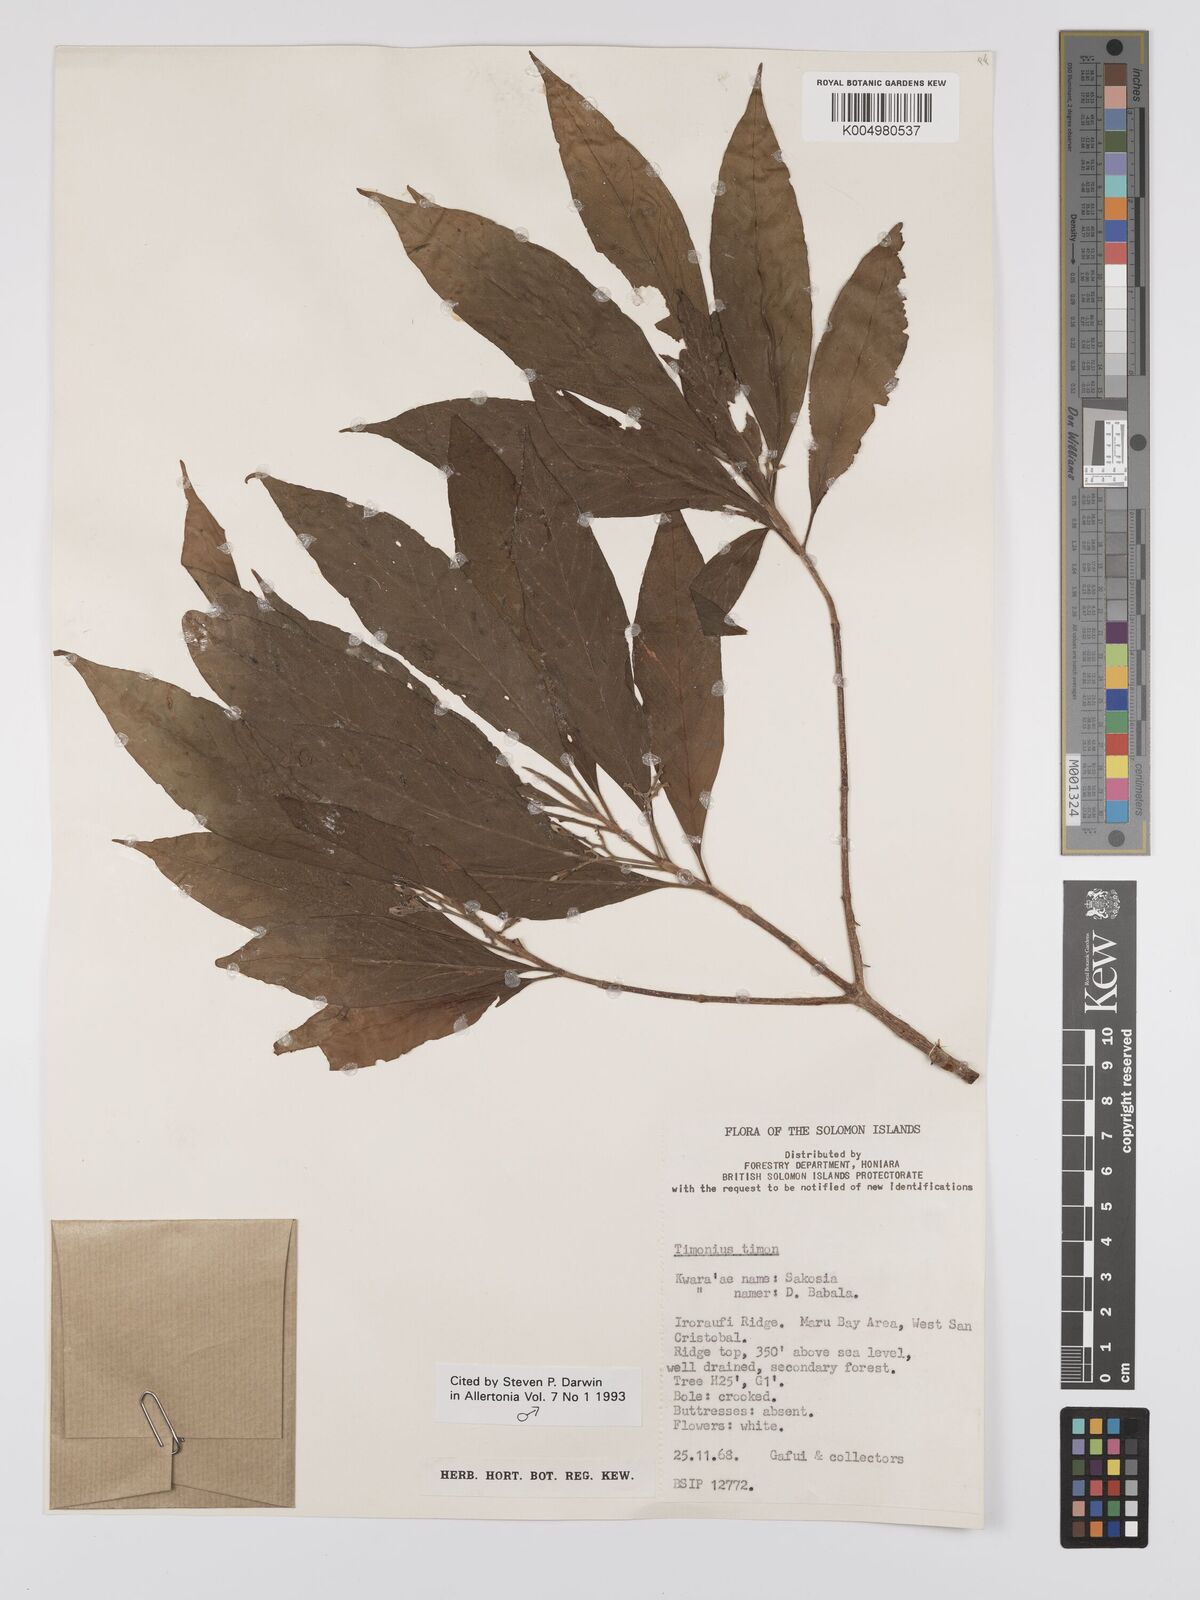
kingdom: Plantae
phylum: Tracheophyta
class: Magnoliopsida
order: Gentianales
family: Rubiaceae
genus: Timonius
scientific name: Timonius timon
